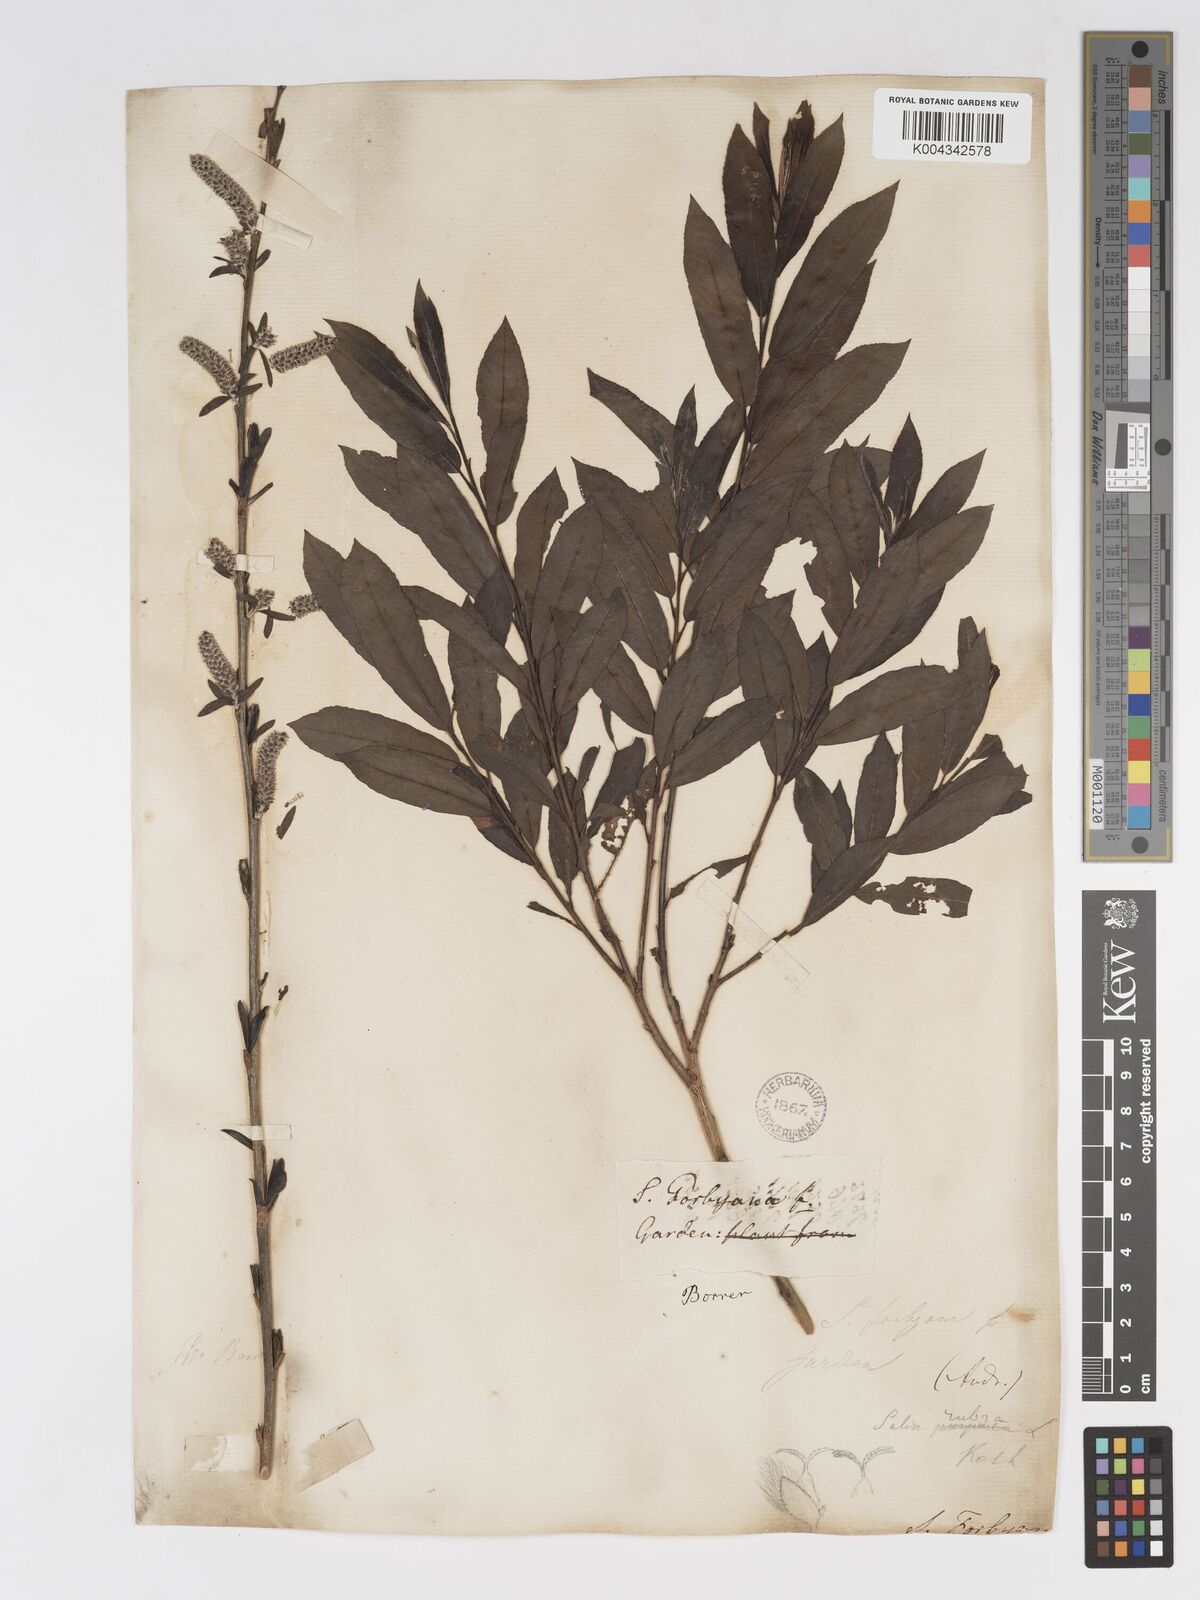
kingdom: Plantae
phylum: Tracheophyta
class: Magnoliopsida
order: Malpighiales
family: Salicaceae
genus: Salix
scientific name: Salix cinerea
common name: Common sallow
